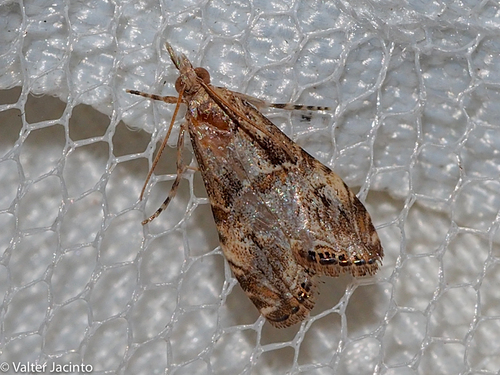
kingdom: Animalia
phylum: Arthropoda
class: Insecta
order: Lepidoptera
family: Crambidae
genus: Euchromius
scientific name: Euchromius cambridgei
